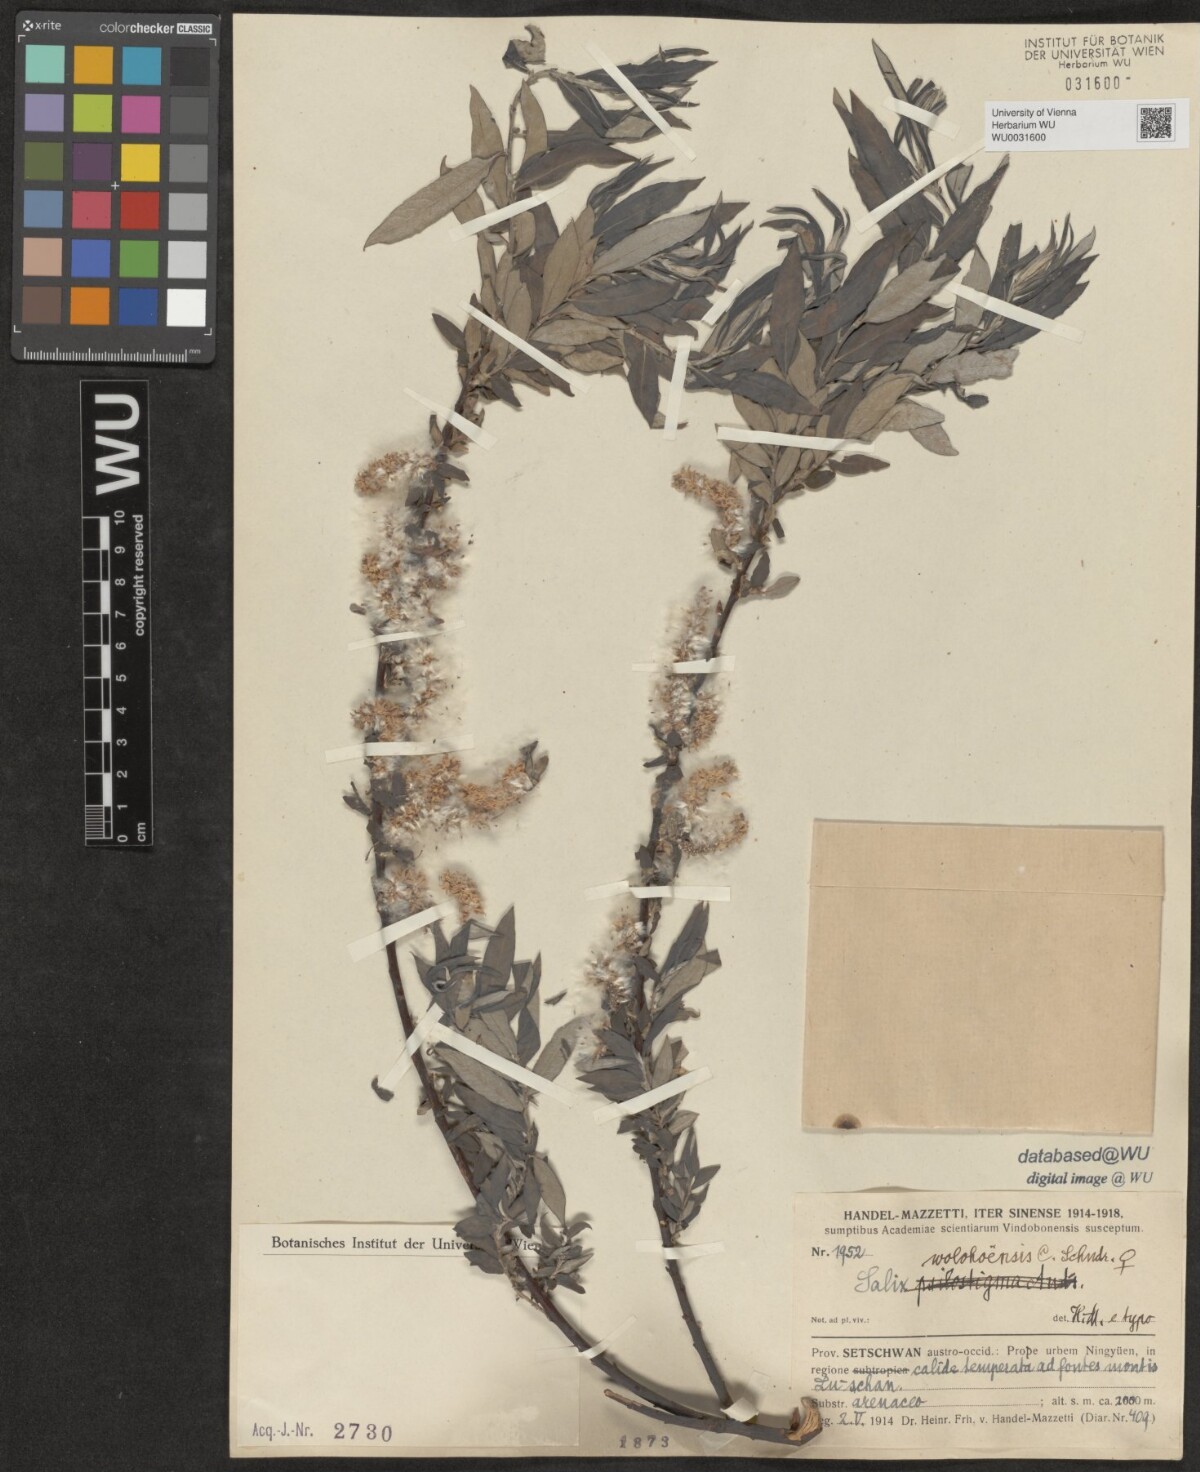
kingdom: Plantae
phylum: Tracheophyta
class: Magnoliopsida
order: Malpighiales
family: Salicaceae
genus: Salix
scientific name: Salix wolohoensis
